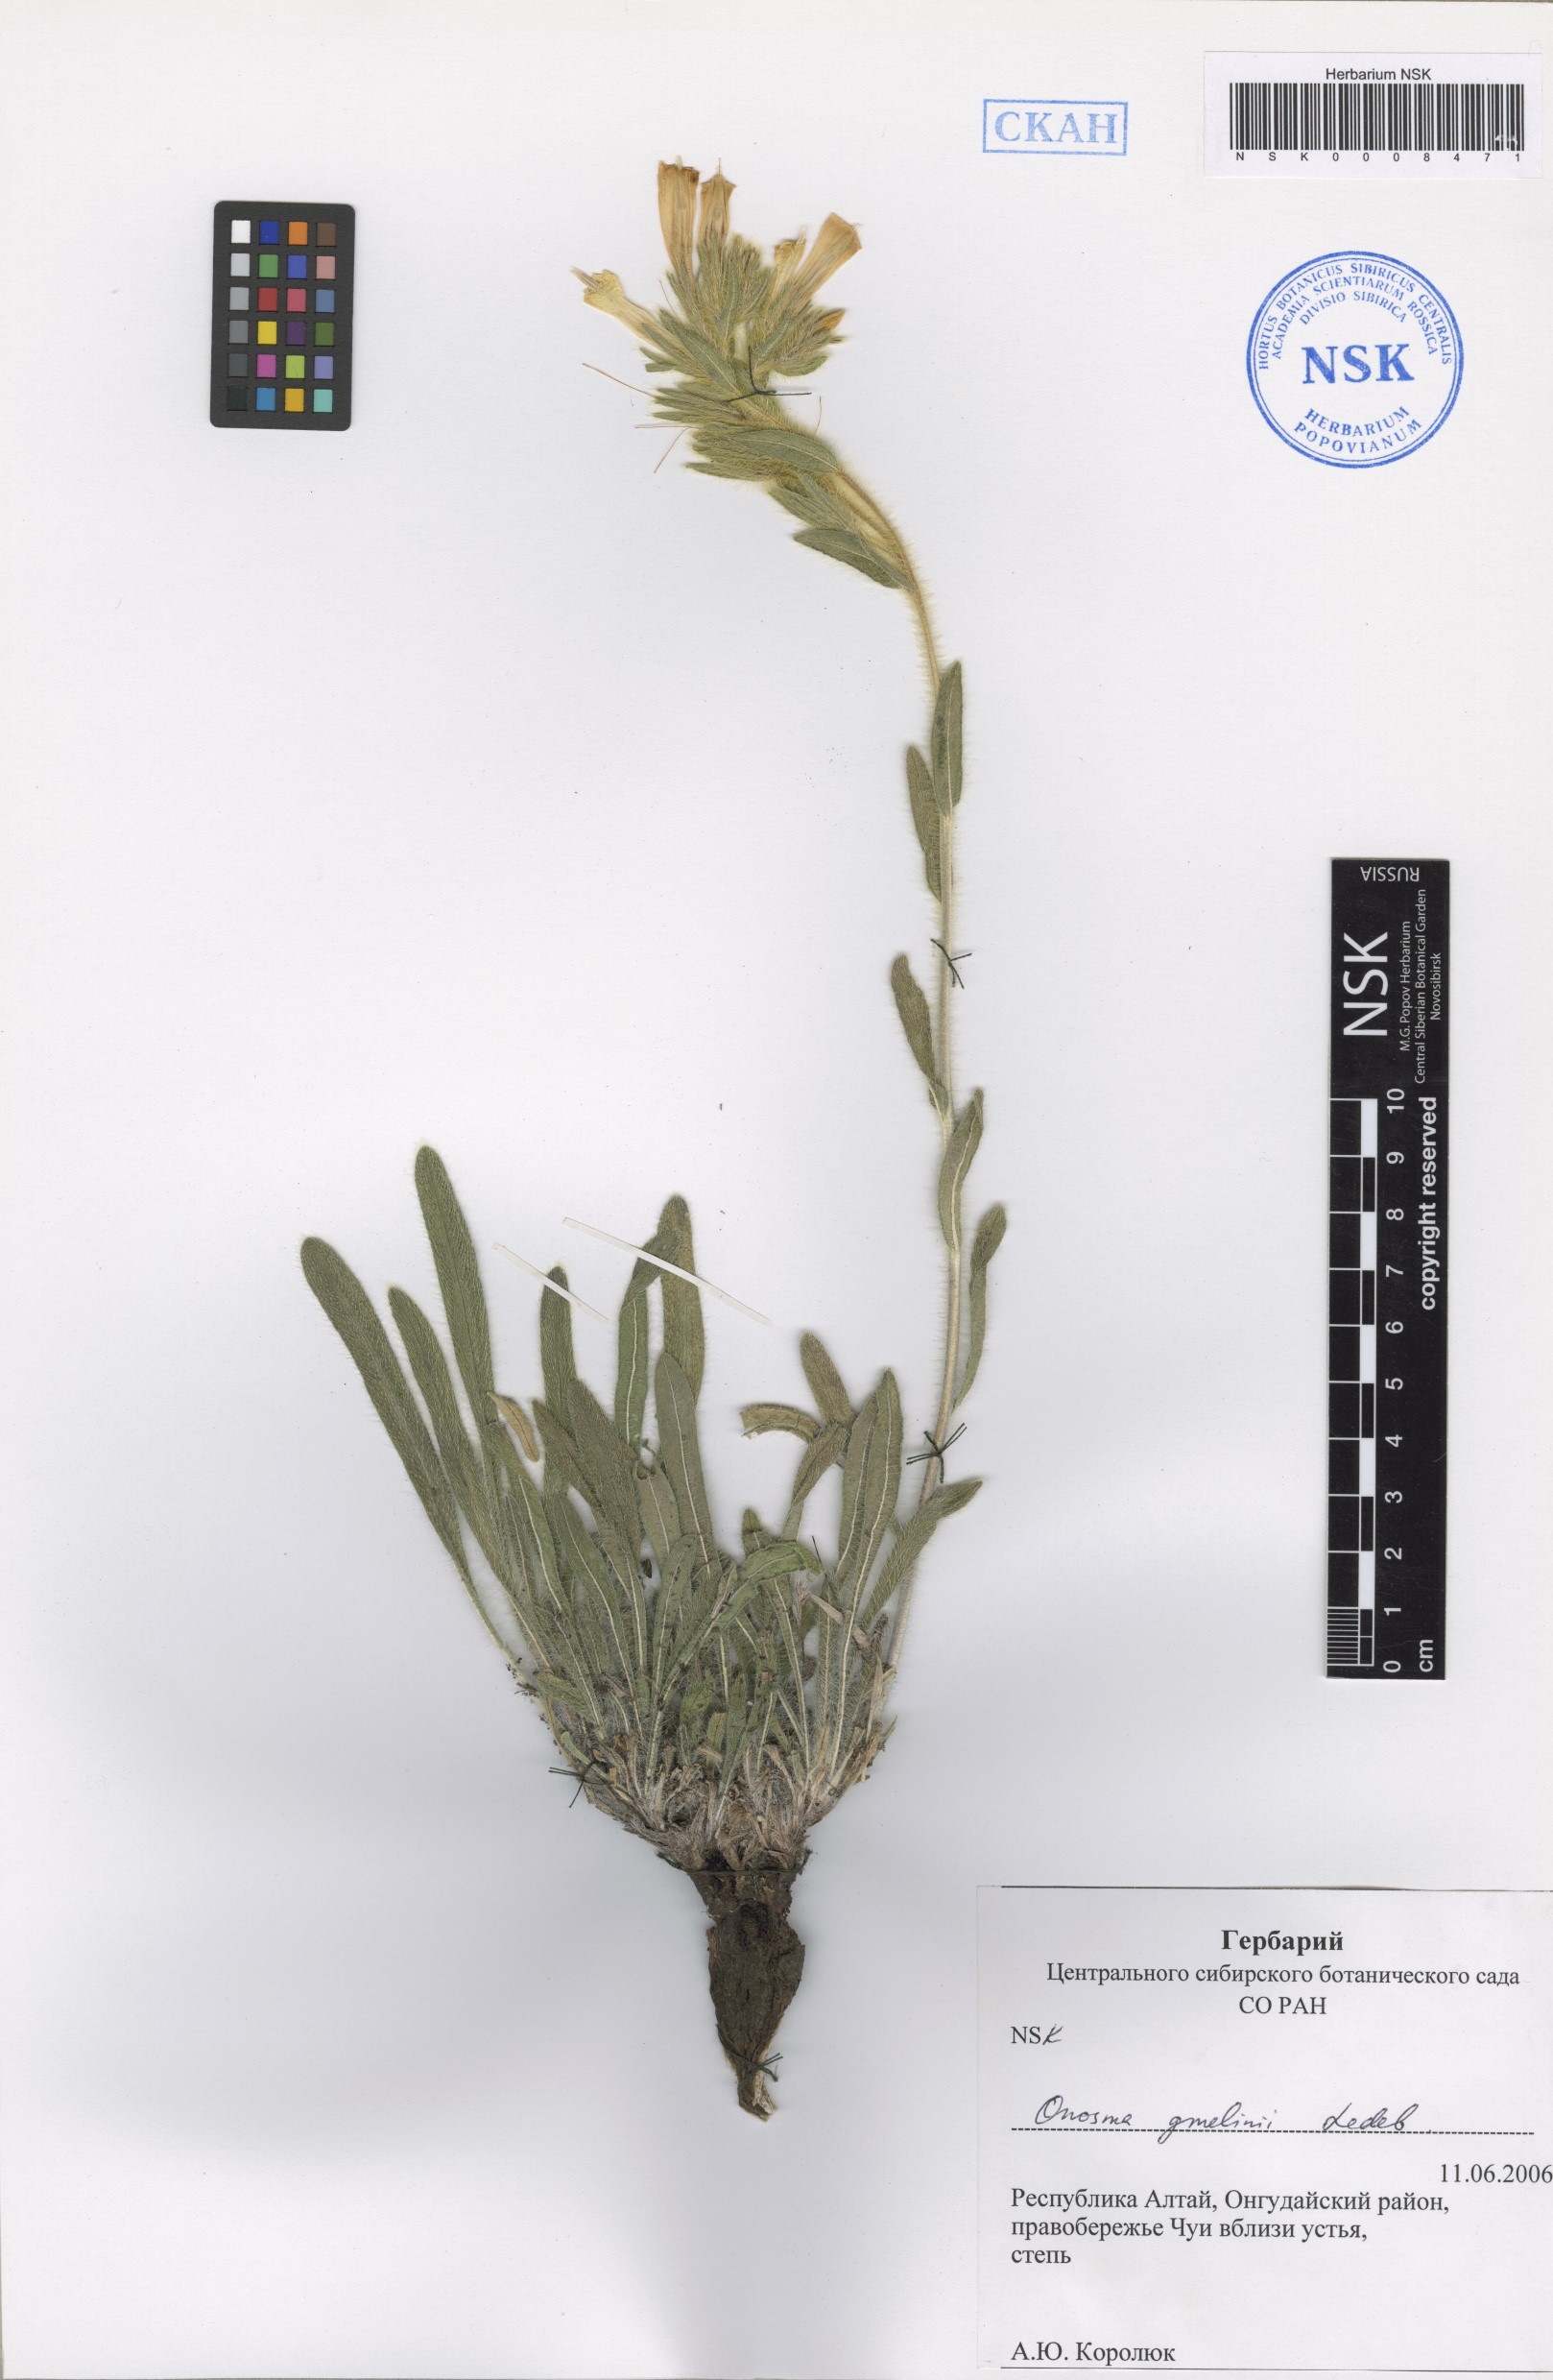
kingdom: Plantae
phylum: Tracheophyta
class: Magnoliopsida
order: Boraginales
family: Boraginaceae
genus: Onosma
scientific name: Onosma gmelinii
